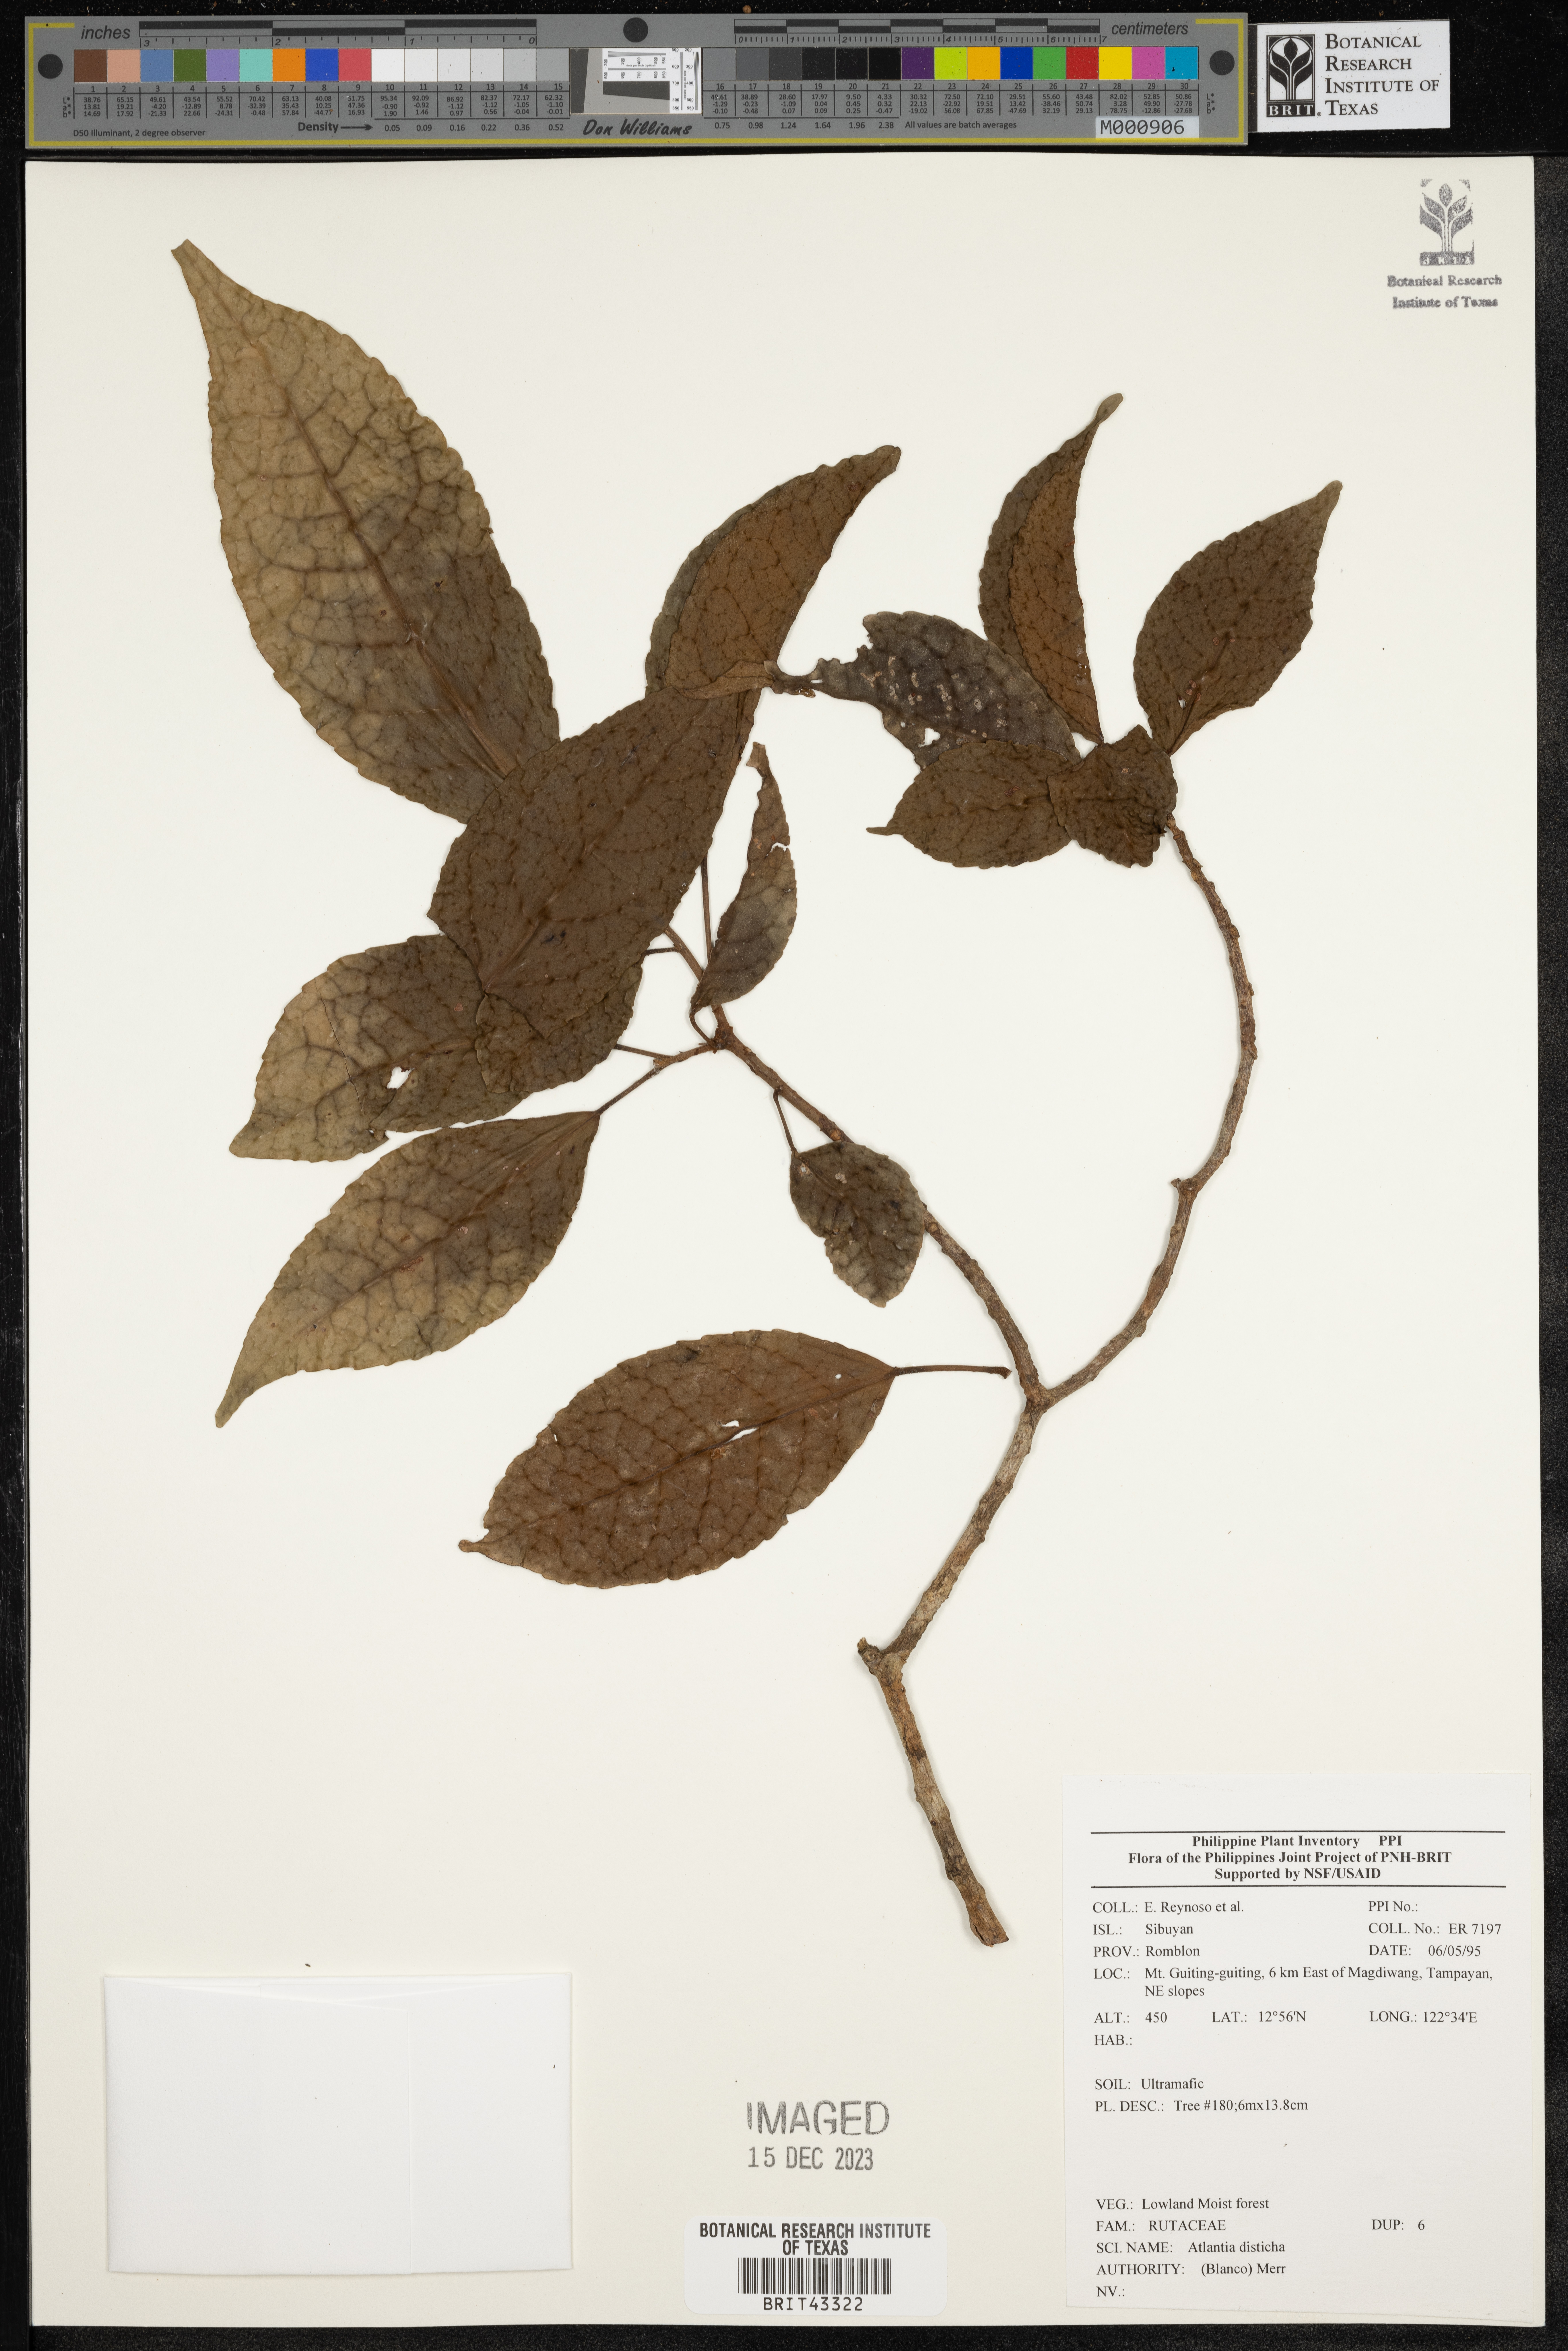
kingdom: Plantae
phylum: Tracheophyta
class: Magnoliopsida
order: Sapindales
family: Rutaceae
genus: Atalantia
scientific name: Atalantia
